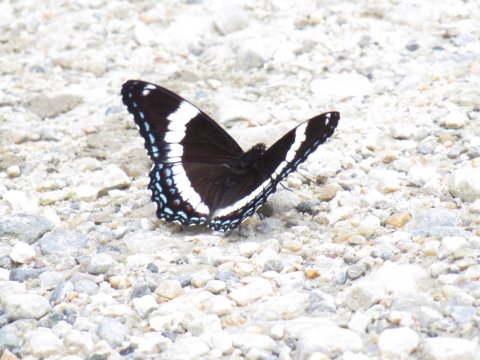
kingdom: Animalia
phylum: Arthropoda
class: Insecta
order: Lepidoptera
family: Nymphalidae
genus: Limenitis
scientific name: Limenitis arthemis
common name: Red-spotted Admiral
